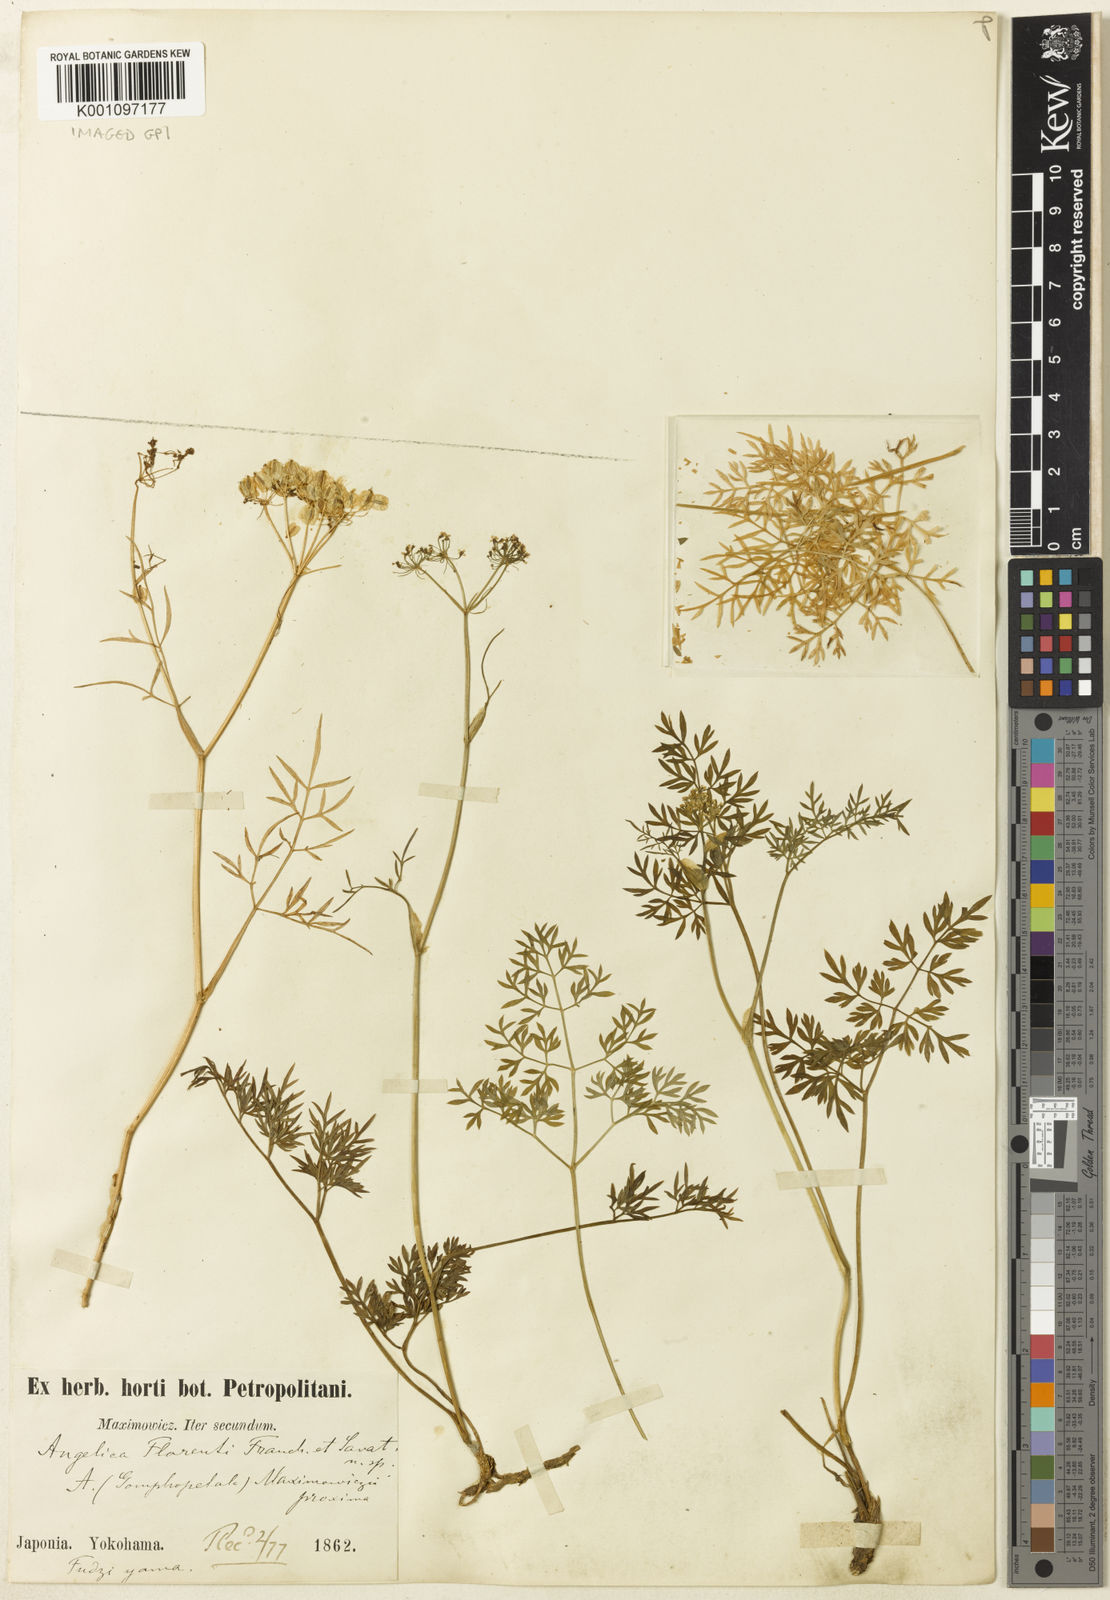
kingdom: Plantae
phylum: Tracheophyta
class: Magnoliopsida
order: Apiales
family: Apiaceae
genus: Ostericum
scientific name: Ostericum florenti
